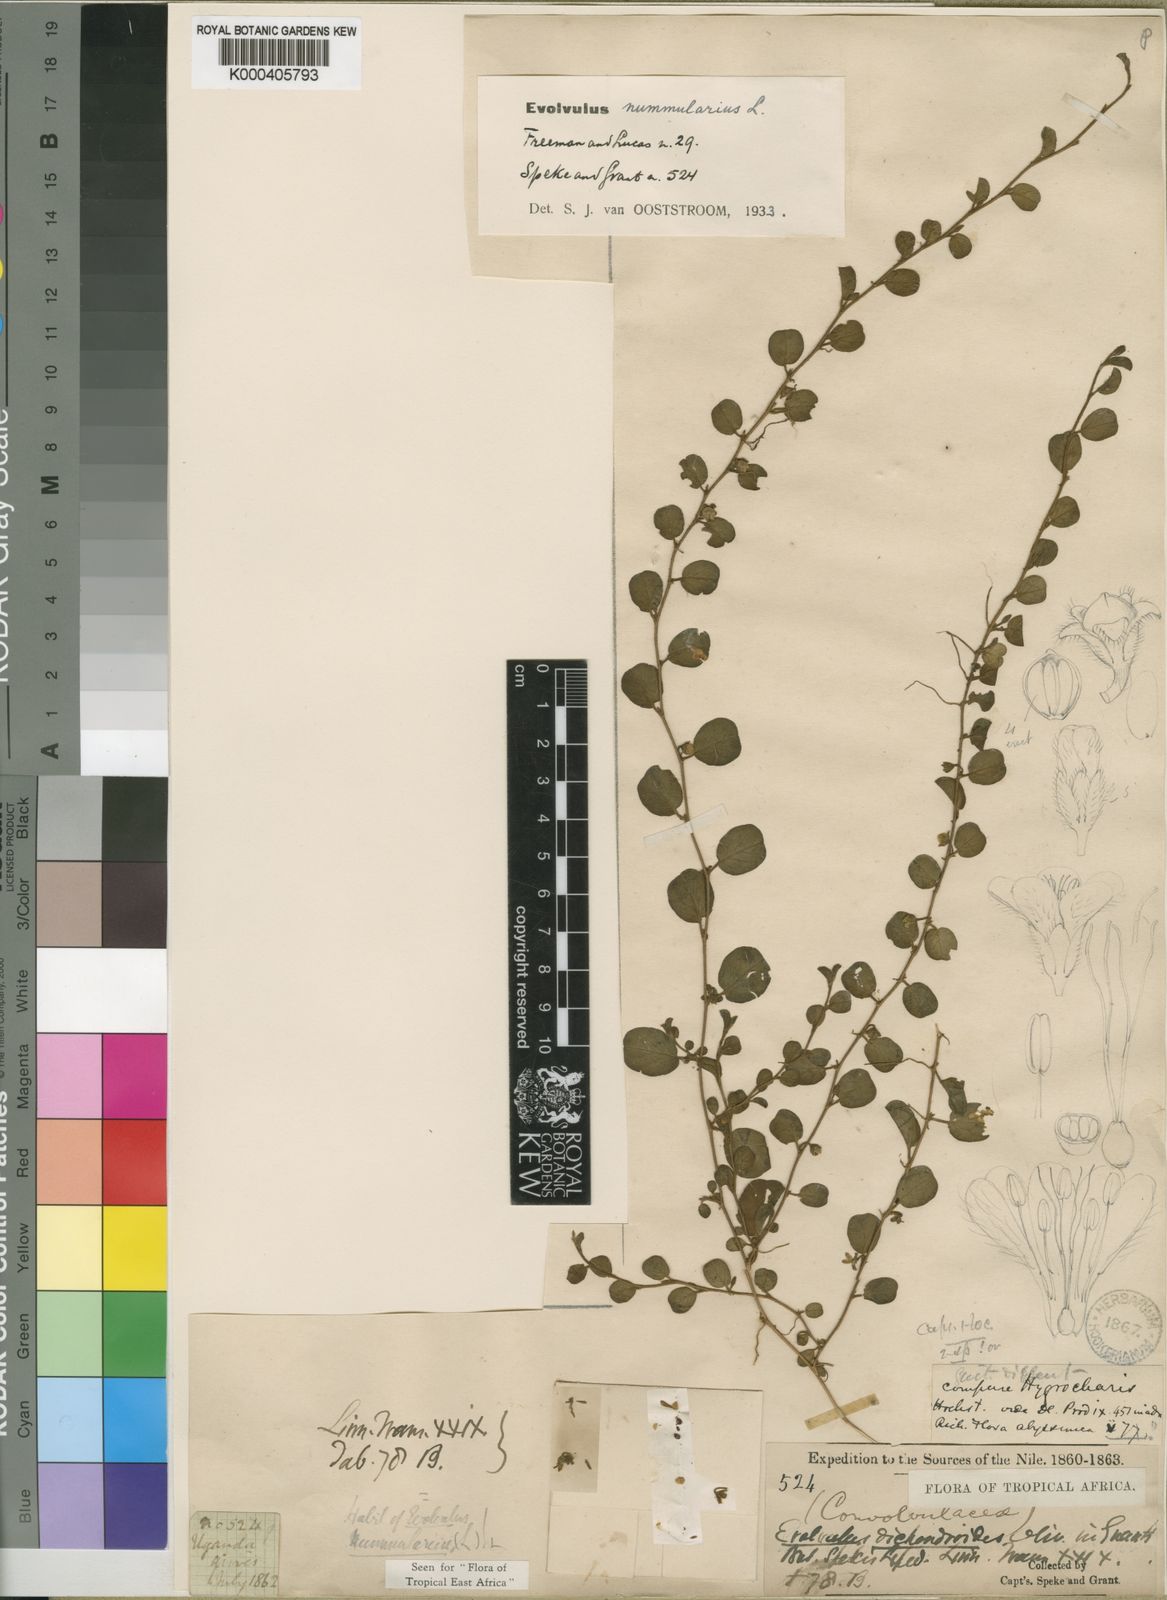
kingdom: Plantae
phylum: Tracheophyta
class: Magnoliopsida
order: Solanales
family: Convolvulaceae
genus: Evolvulus
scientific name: Evolvulus nummularius
